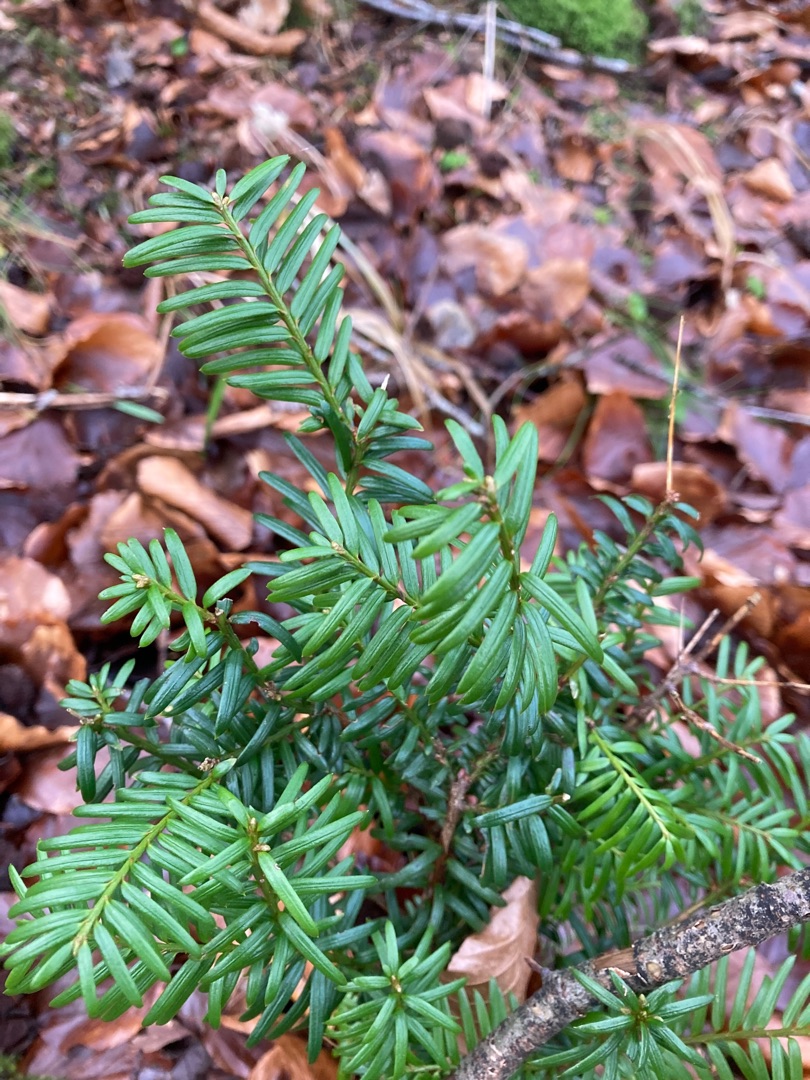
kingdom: Plantae
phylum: Tracheophyta
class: Pinopsida
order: Pinales
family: Taxaceae
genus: Taxus
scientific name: Taxus baccata
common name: Almindelig taks
